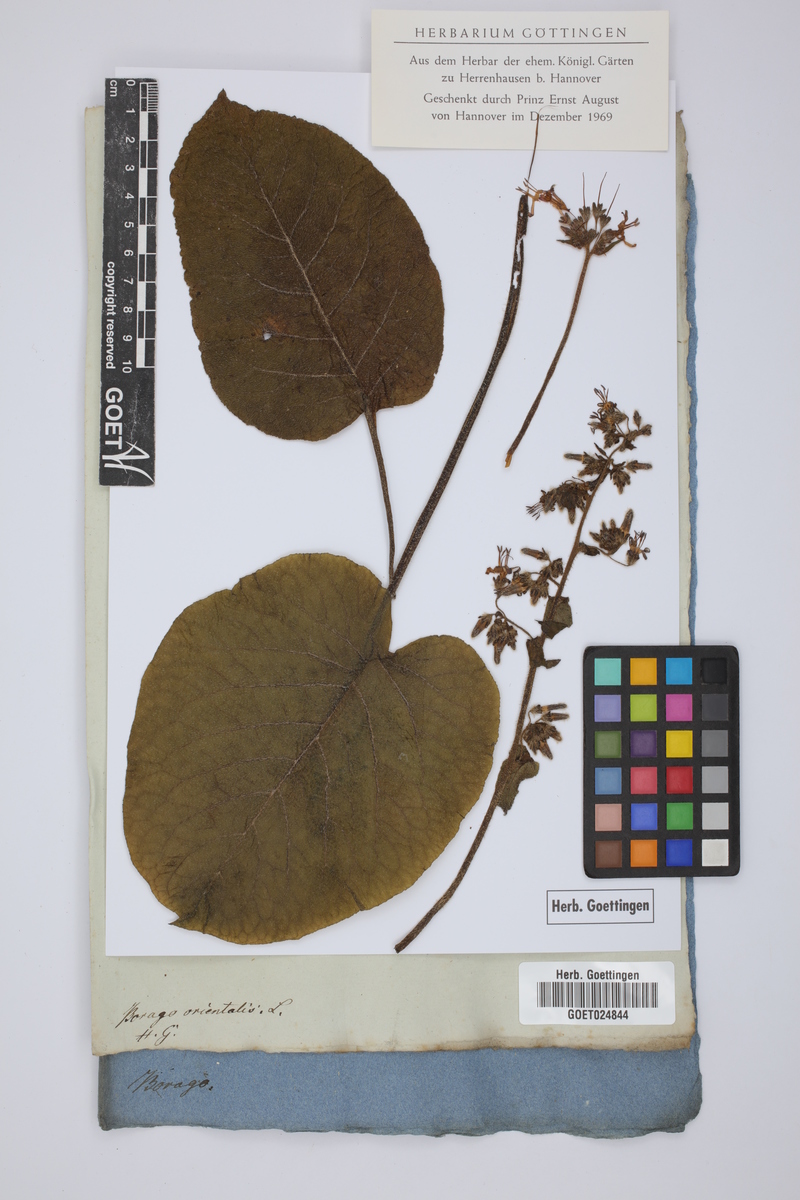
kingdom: Plantae
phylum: Tracheophyta
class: Magnoliopsida
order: Boraginales
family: Boraginaceae
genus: Trachystemon
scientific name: Trachystemon orientale
